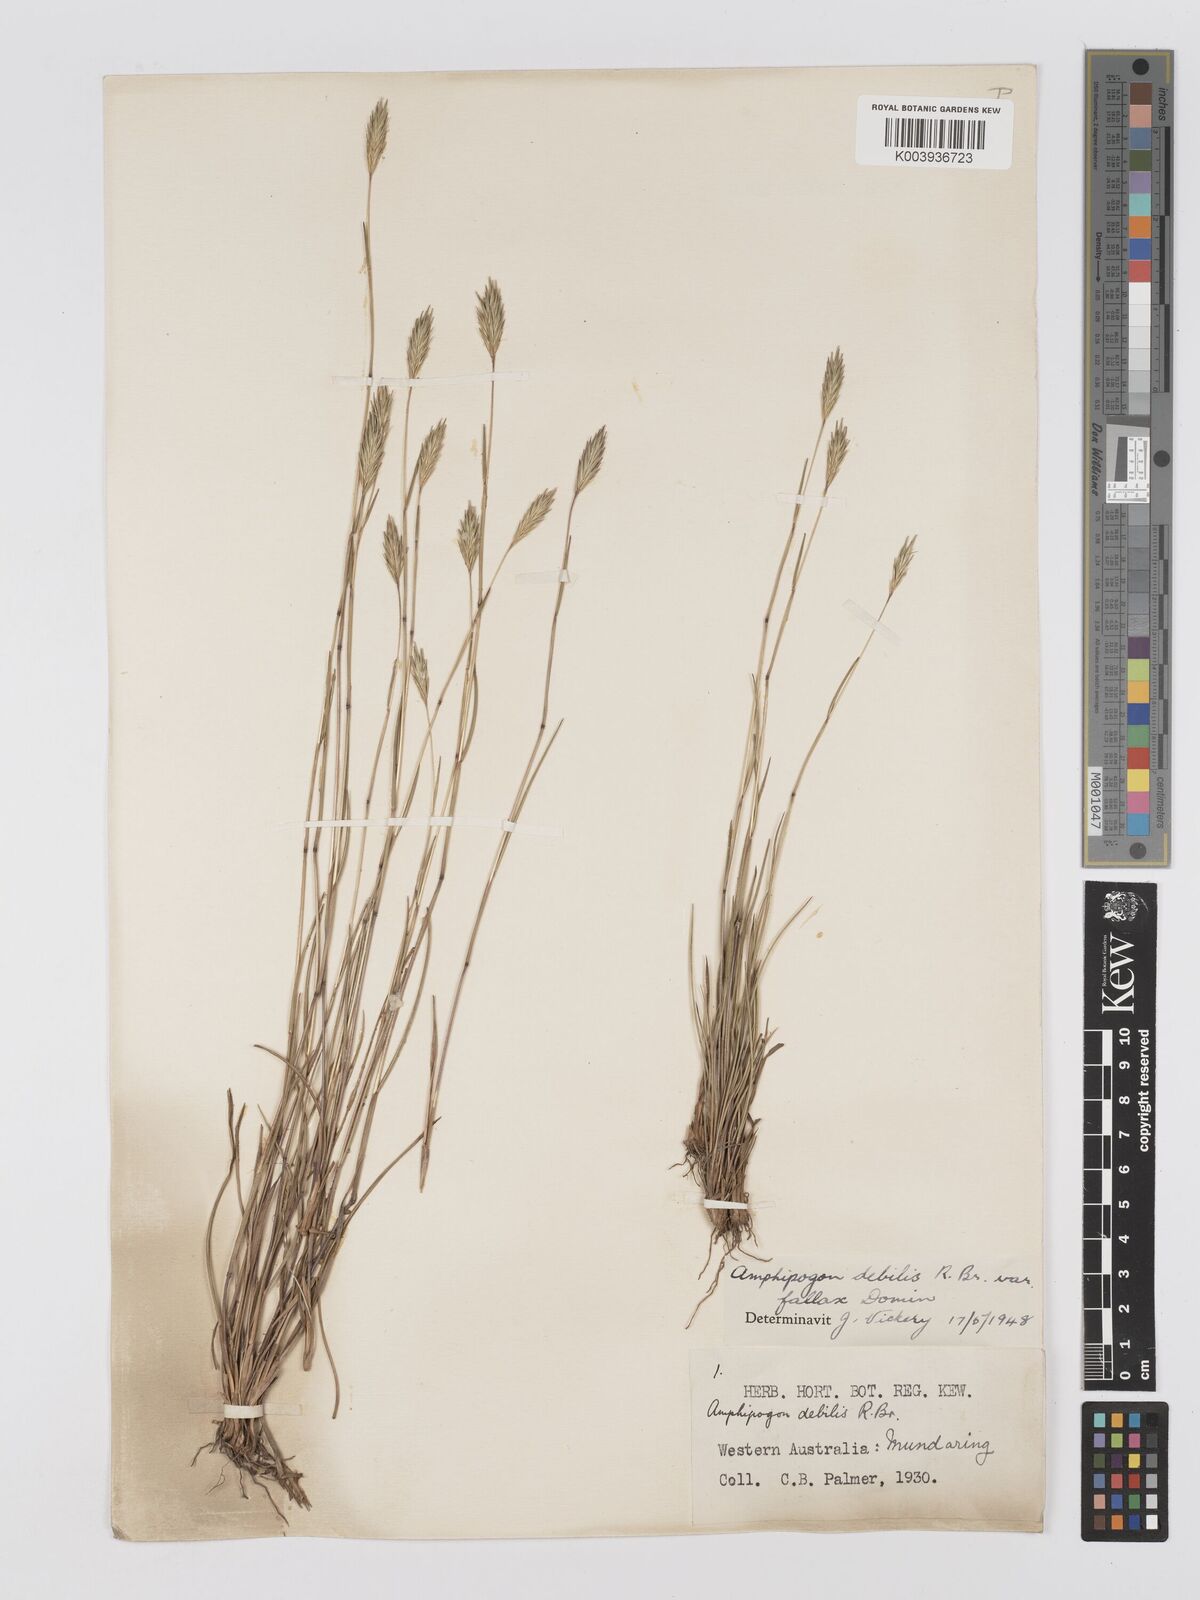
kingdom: Plantae
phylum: Tracheophyta
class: Liliopsida
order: Poales
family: Poaceae
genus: Amphipogon
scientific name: Amphipogon debilis
